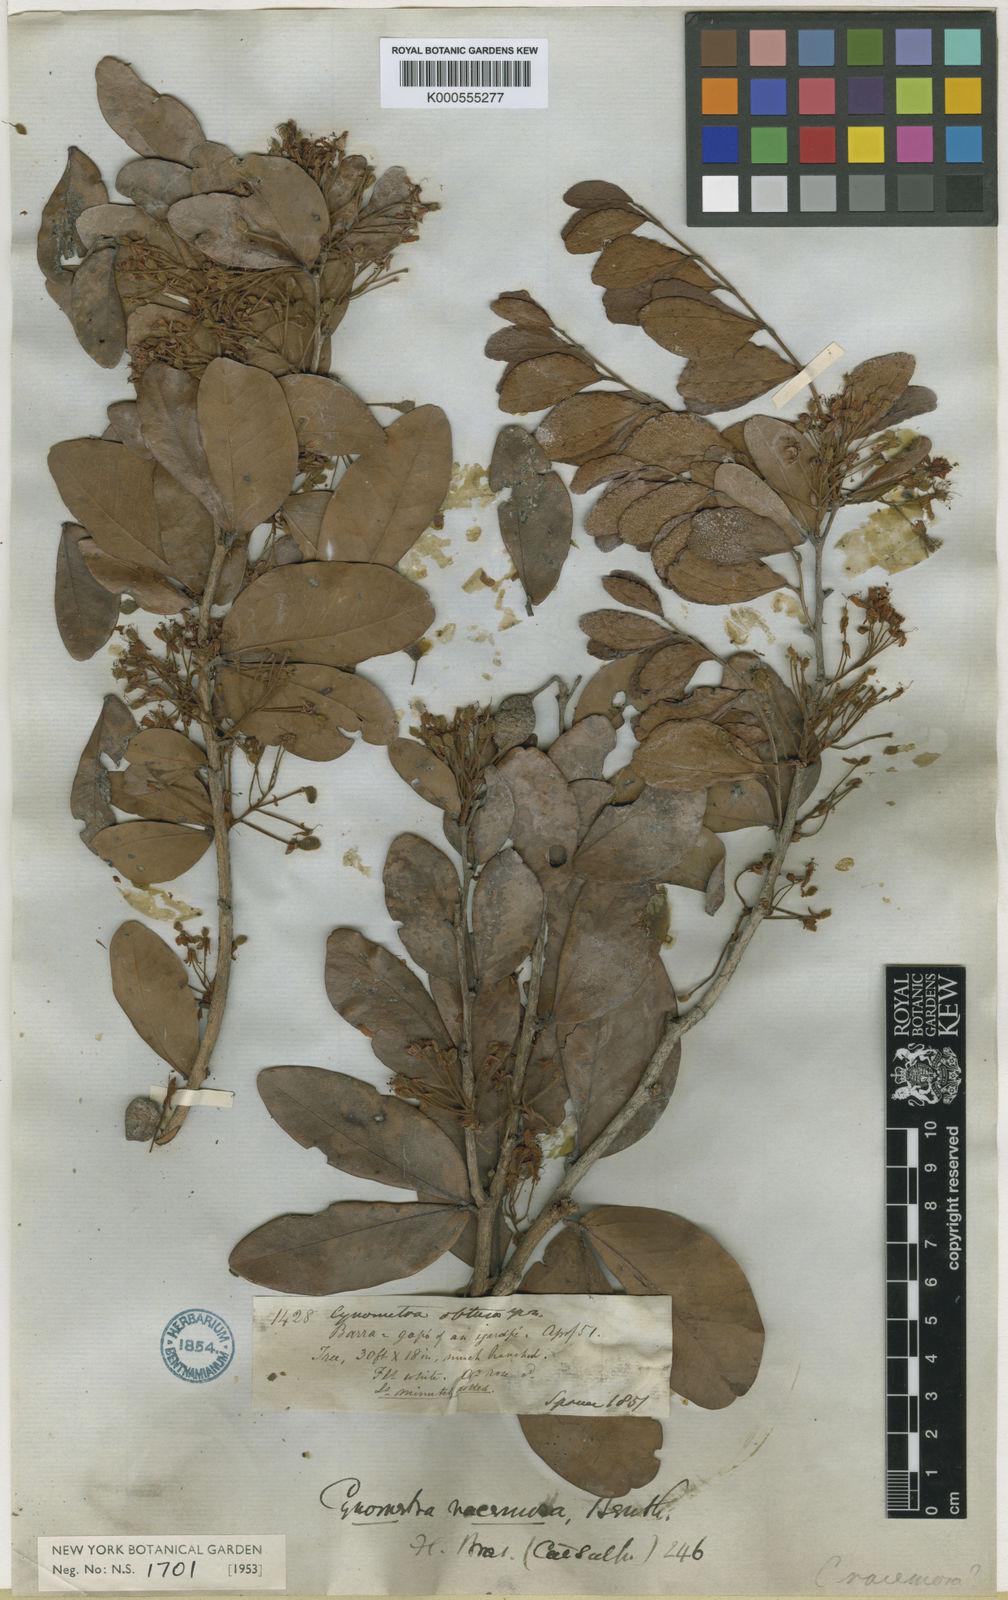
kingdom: Plantae
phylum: Tracheophyta
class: Magnoliopsida
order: Fabales
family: Fabaceae
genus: Cynometra
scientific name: Cynometra phaselocarpa
